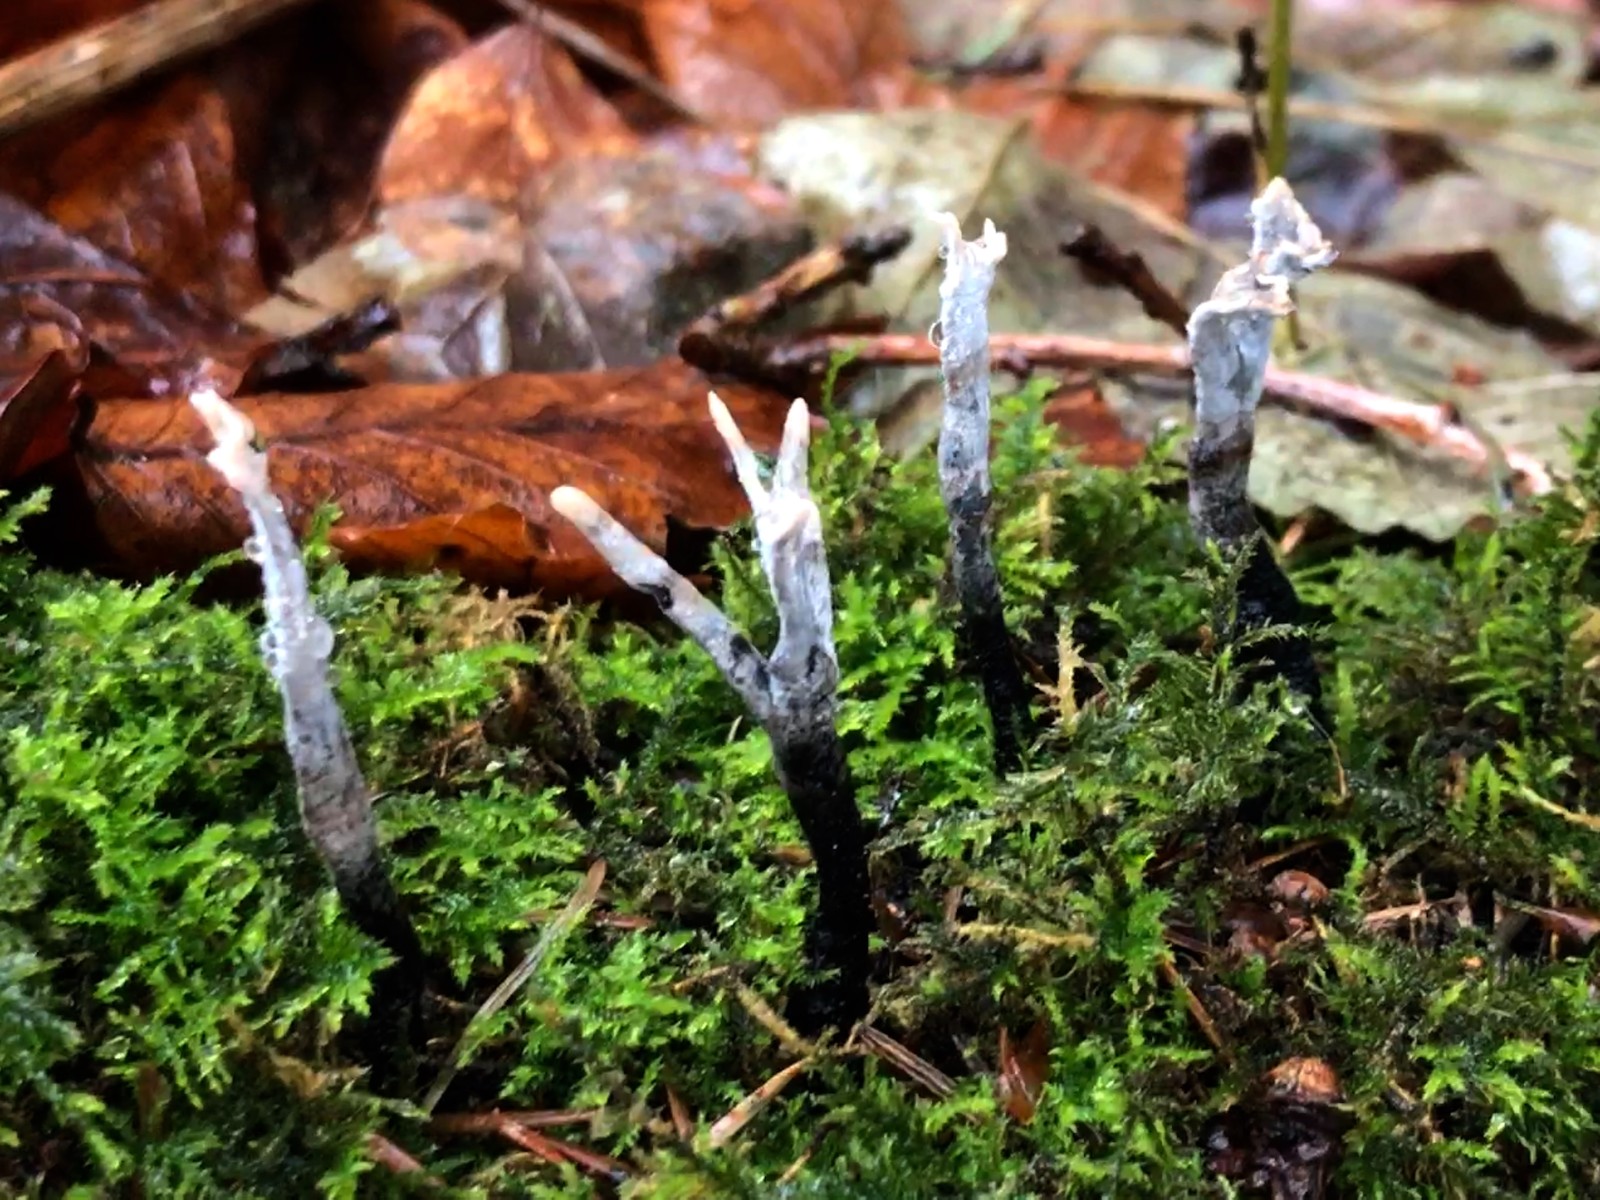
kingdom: Fungi
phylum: Ascomycota
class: Sordariomycetes
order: Xylariales
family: Xylariaceae
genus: Xylaria
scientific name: Xylaria hypoxylon
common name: grenet stødsvamp
